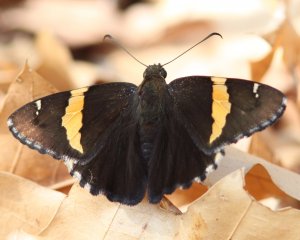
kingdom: Animalia
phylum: Arthropoda
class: Insecta
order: Lepidoptera
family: Hesperiidae
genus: Autochton
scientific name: Autochton cellus
